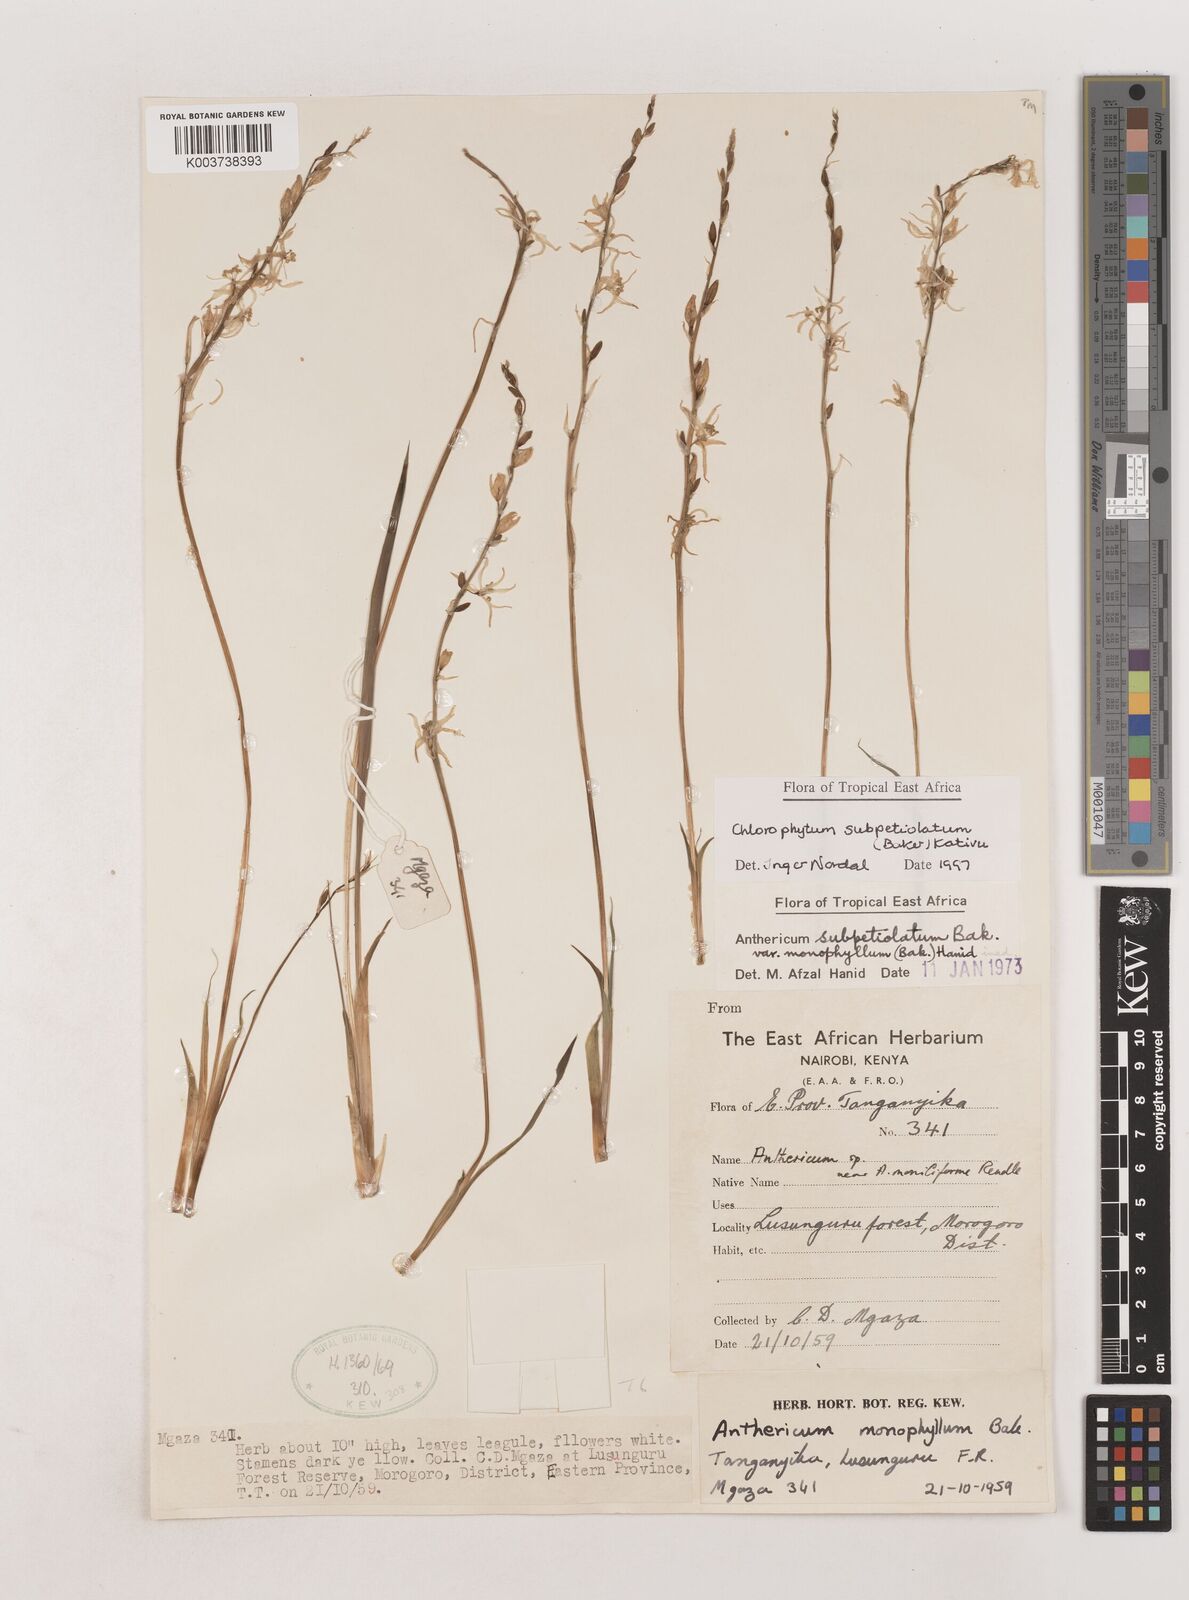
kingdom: Plantae
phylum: Tracheophyta
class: Liliopsida
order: Asparagales
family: Asparagaceae
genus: Chlorophytum
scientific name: Chlorophytum subpetiolatum
